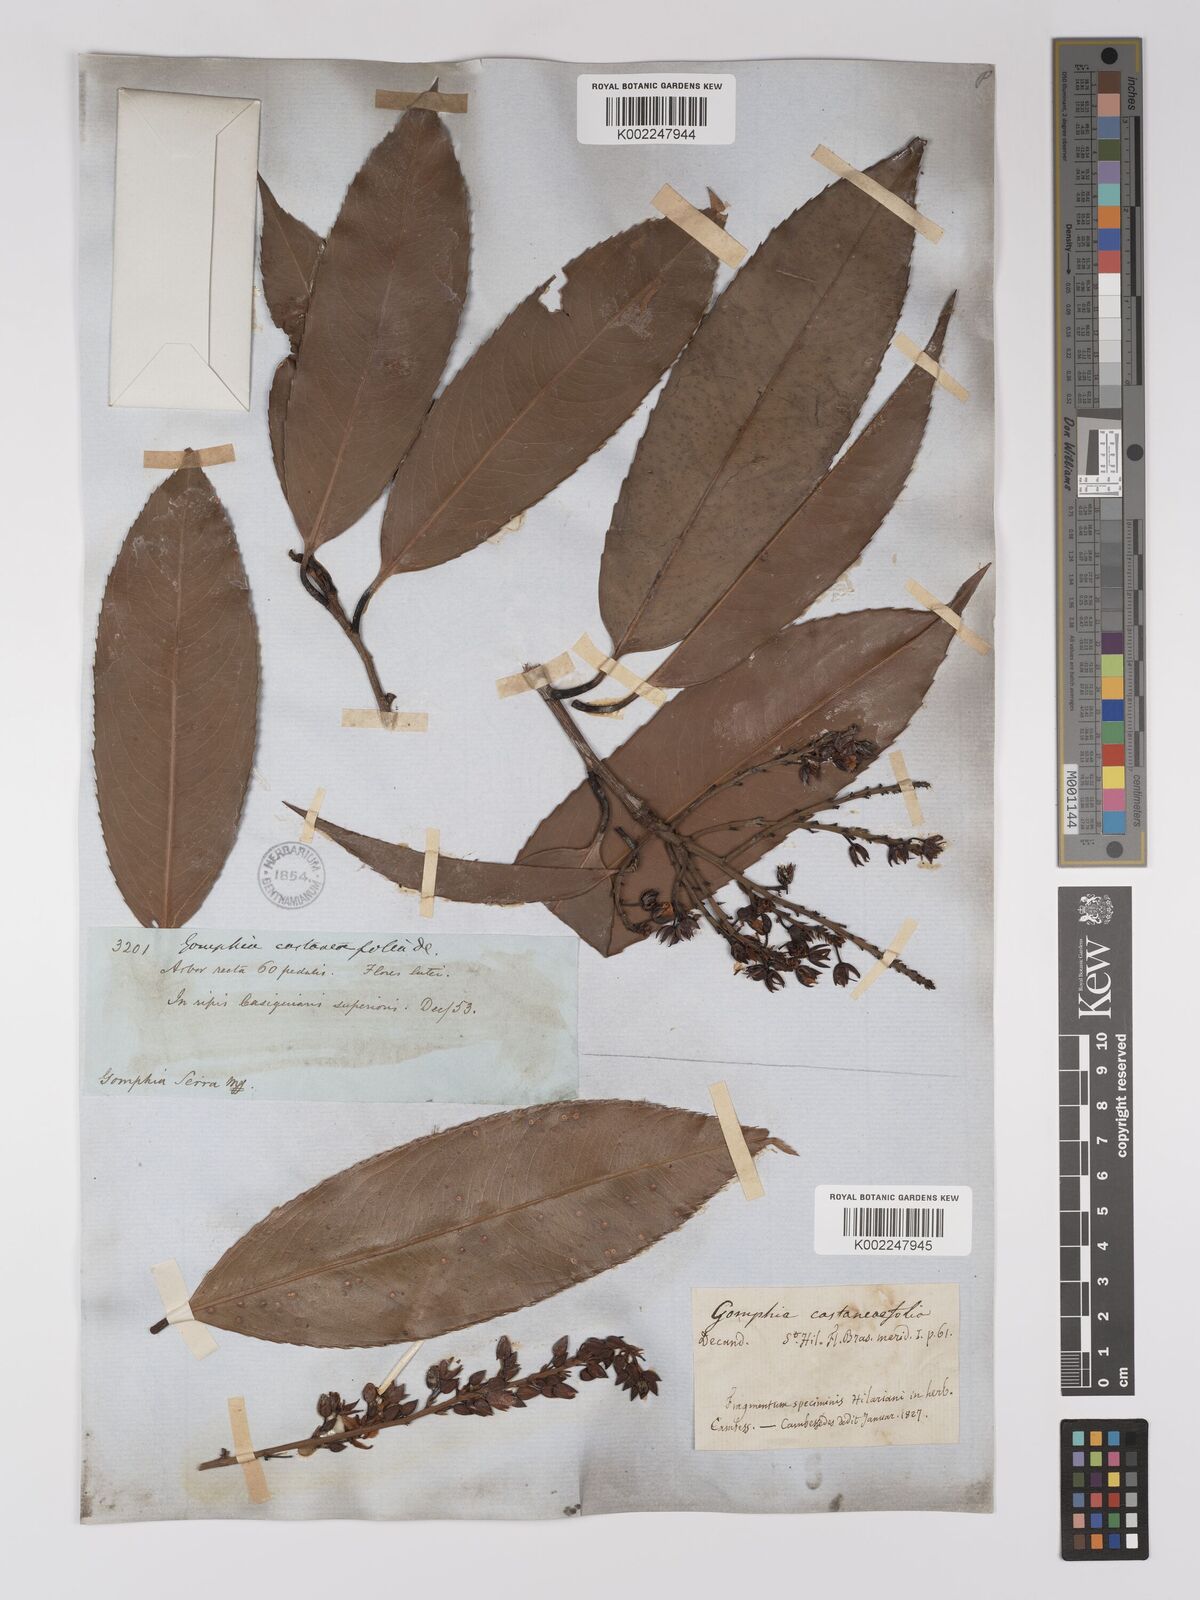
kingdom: Plantae
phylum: Tracheophyta
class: Magnoliopsida
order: Malpighiales
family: Ochnaceae
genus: Ouratea
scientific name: Ouratea castaneifolia
